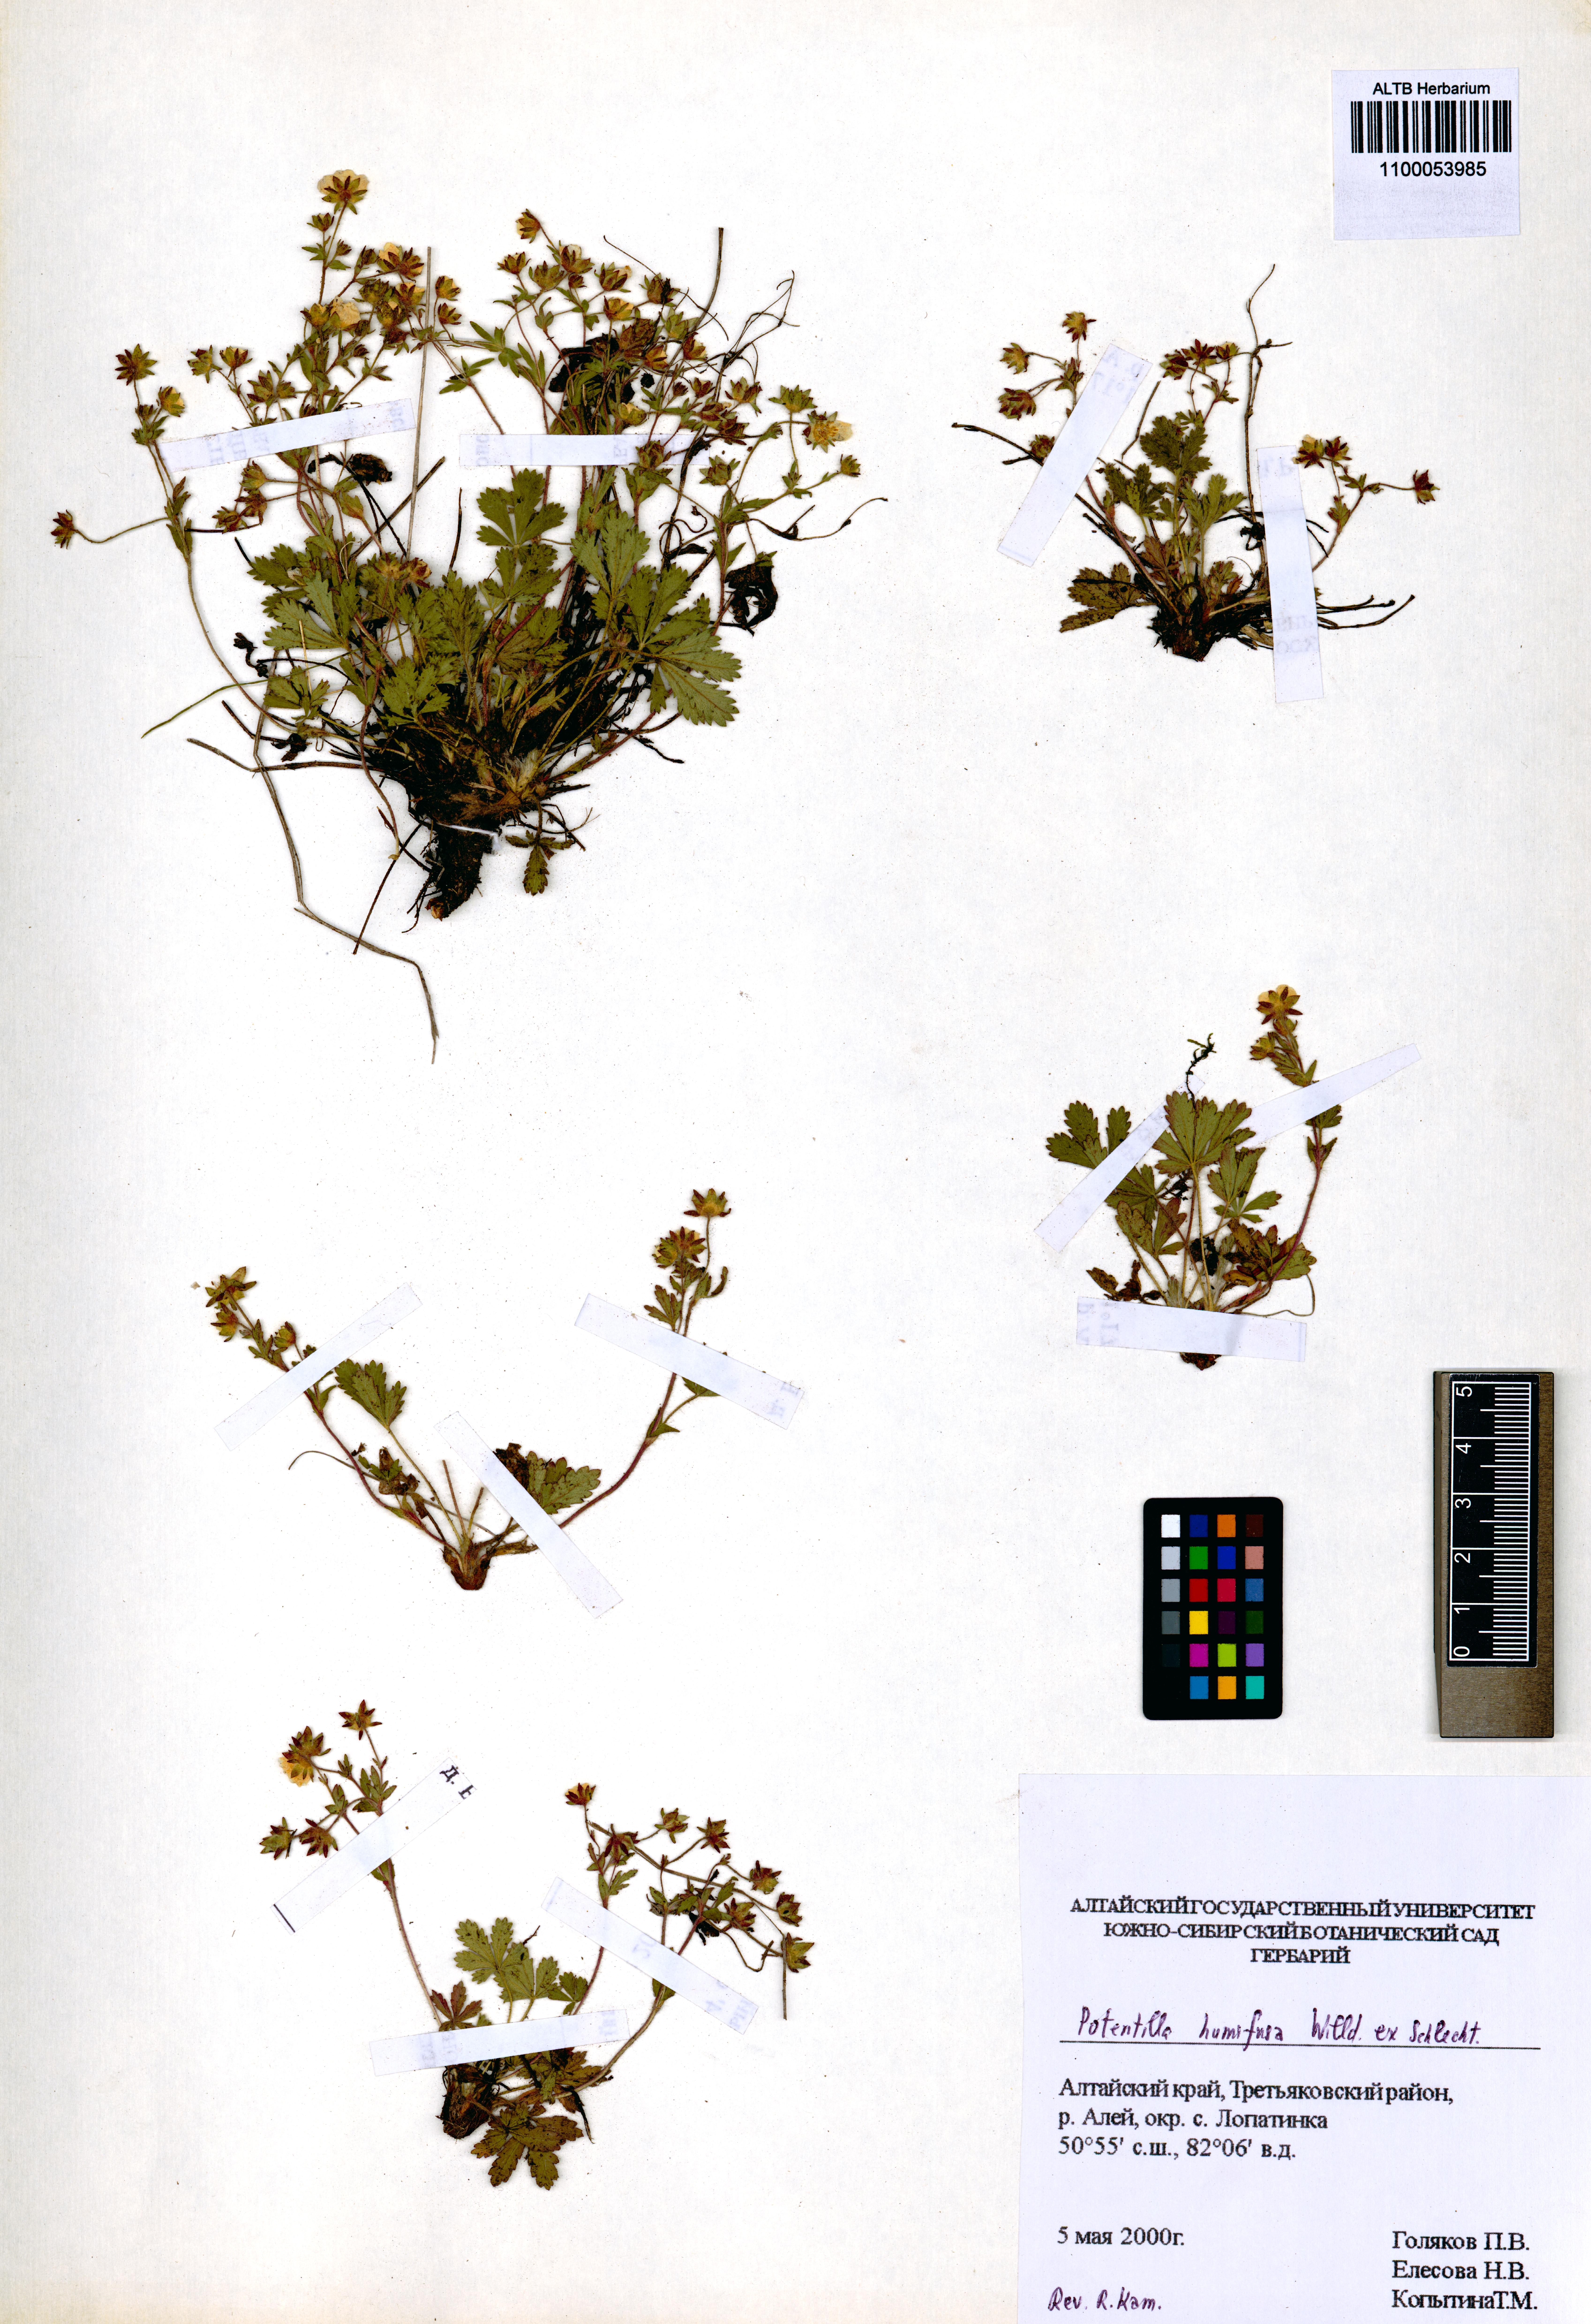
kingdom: Plantae
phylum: Tracheophyta
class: Magnoliopsida
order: Rosales
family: Rosaceae
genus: Potentilla
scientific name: Potentilla humifusa
